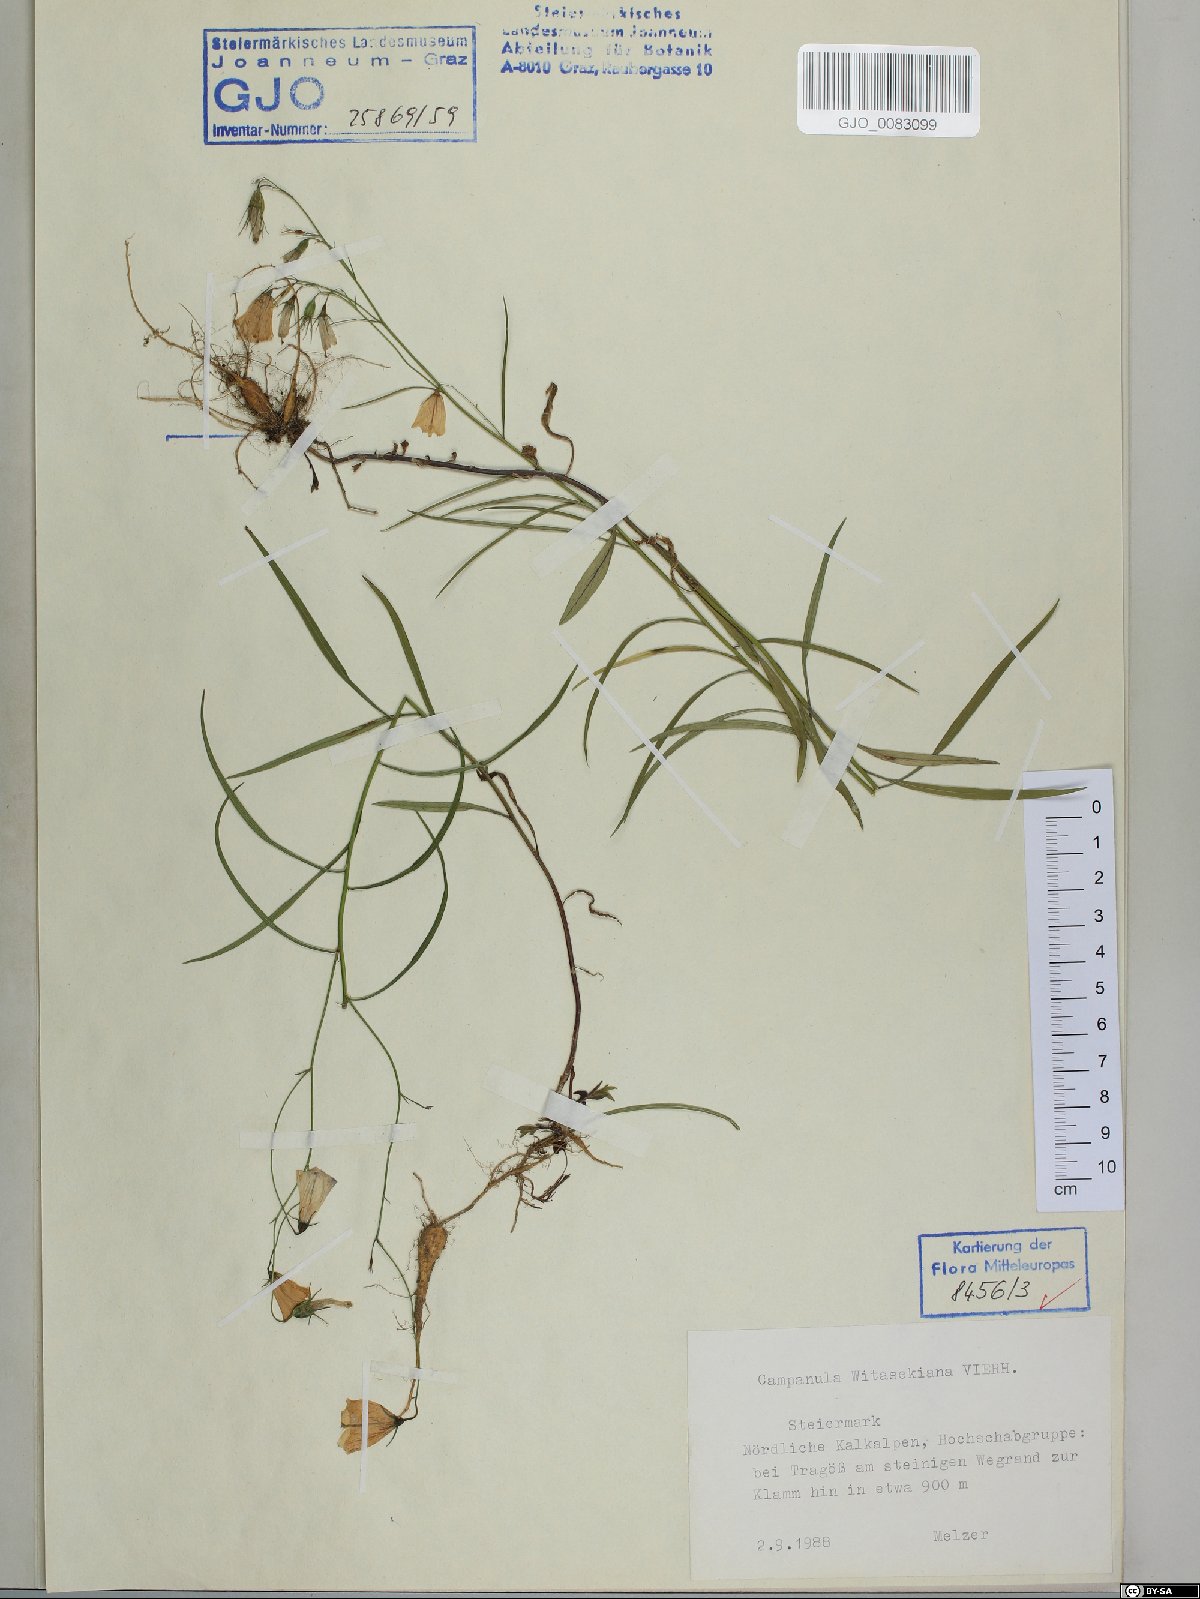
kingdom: Plantae
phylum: Tracheophyta
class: Magnoliopsida
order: Asterales
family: Campanulaceae
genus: Campanula
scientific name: Campanula witasekiana
